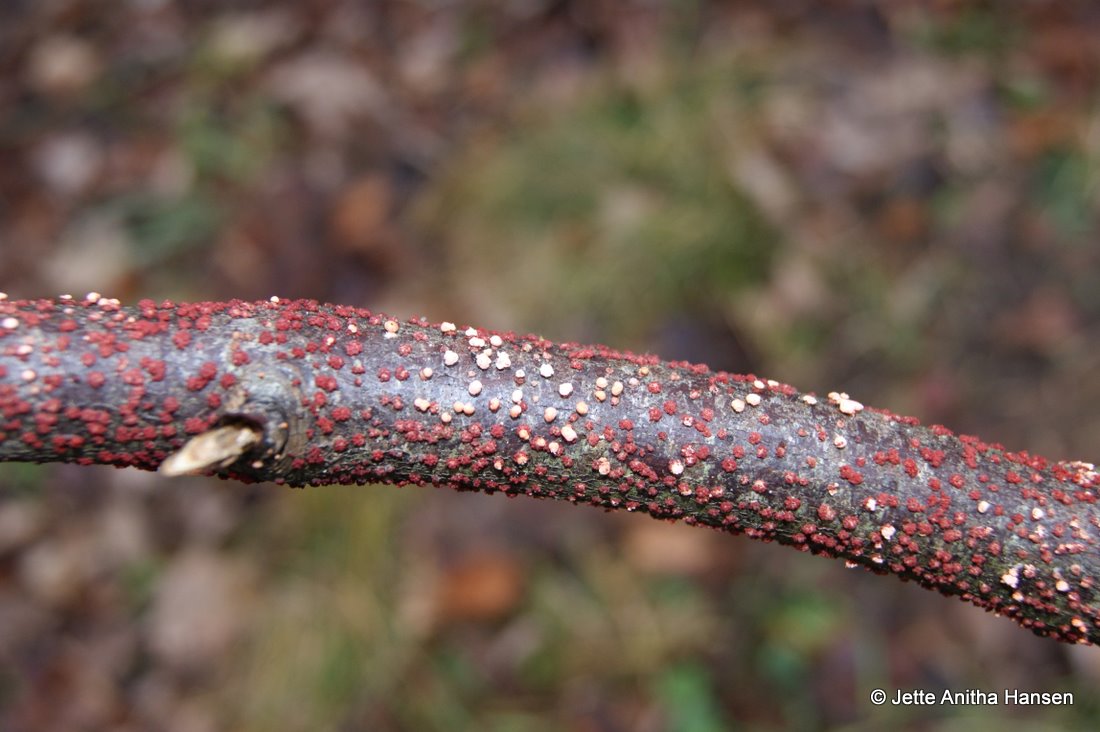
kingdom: Fungi
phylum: Ascomycota
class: Sordariomycetes
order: Hypocreales
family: Nectriaceae
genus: Nectria
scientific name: Nectria cinnabarina
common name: almindelig cinnobersvamp
